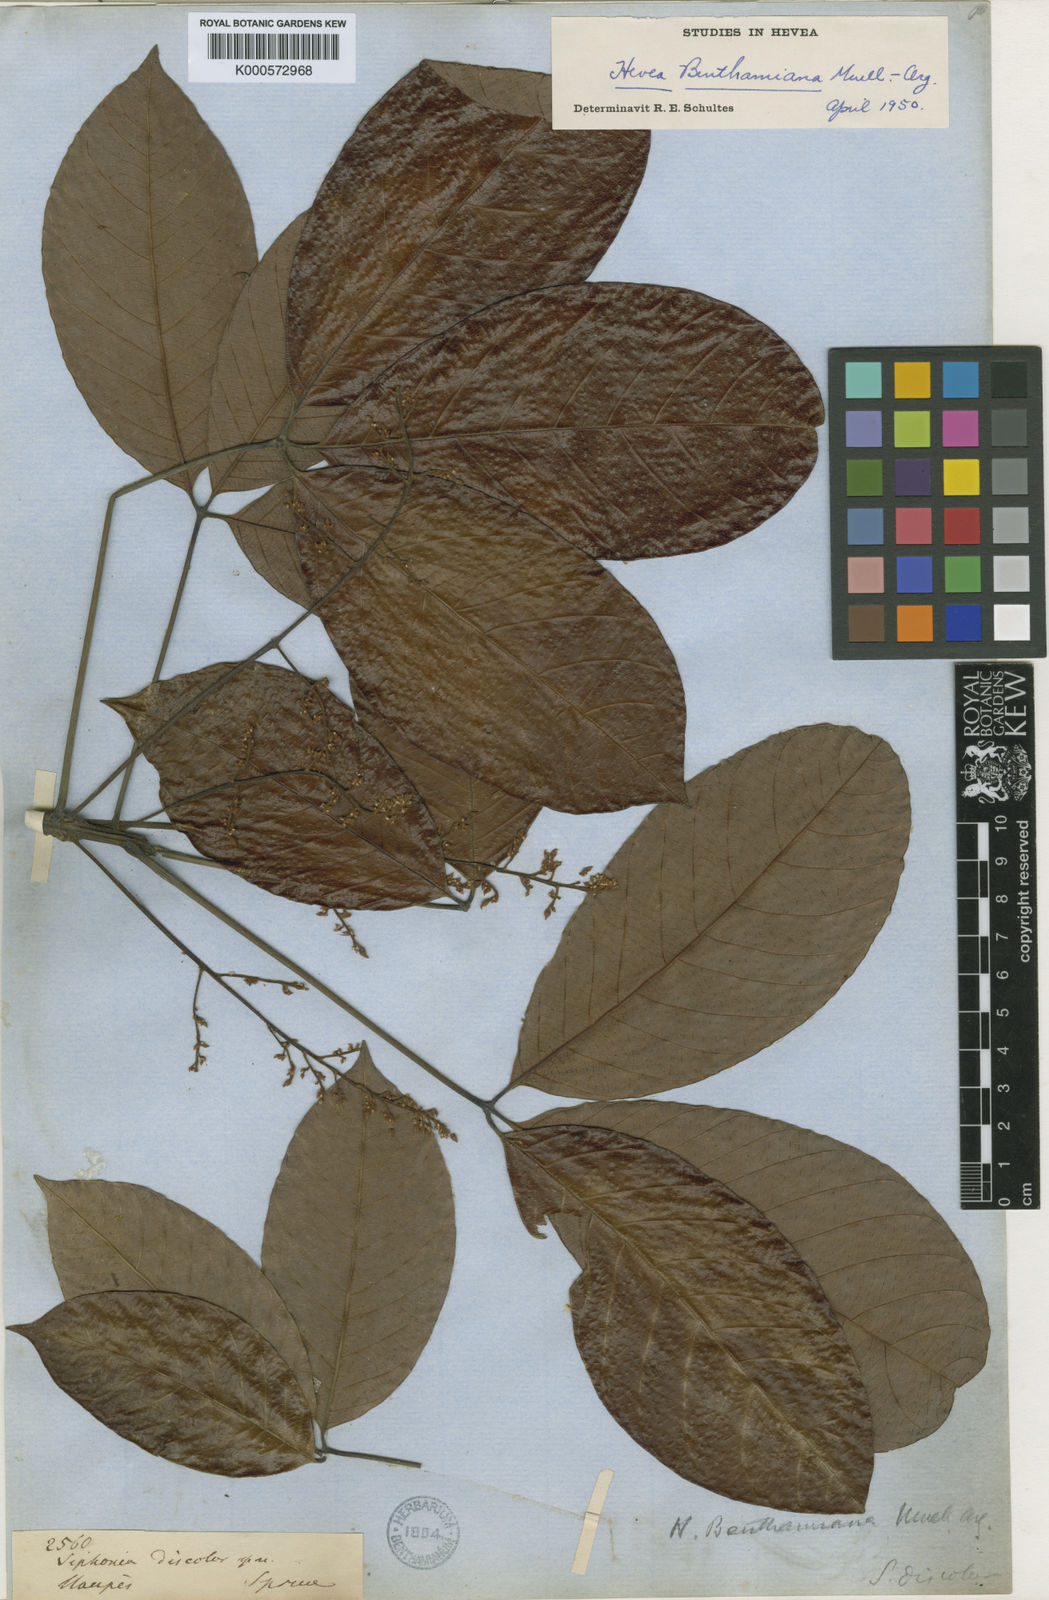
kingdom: Plantae
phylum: Tracheophyta
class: Magnoliopsida
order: Malpighiales
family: Euphorbiaceae
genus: Hevea
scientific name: Hevea
